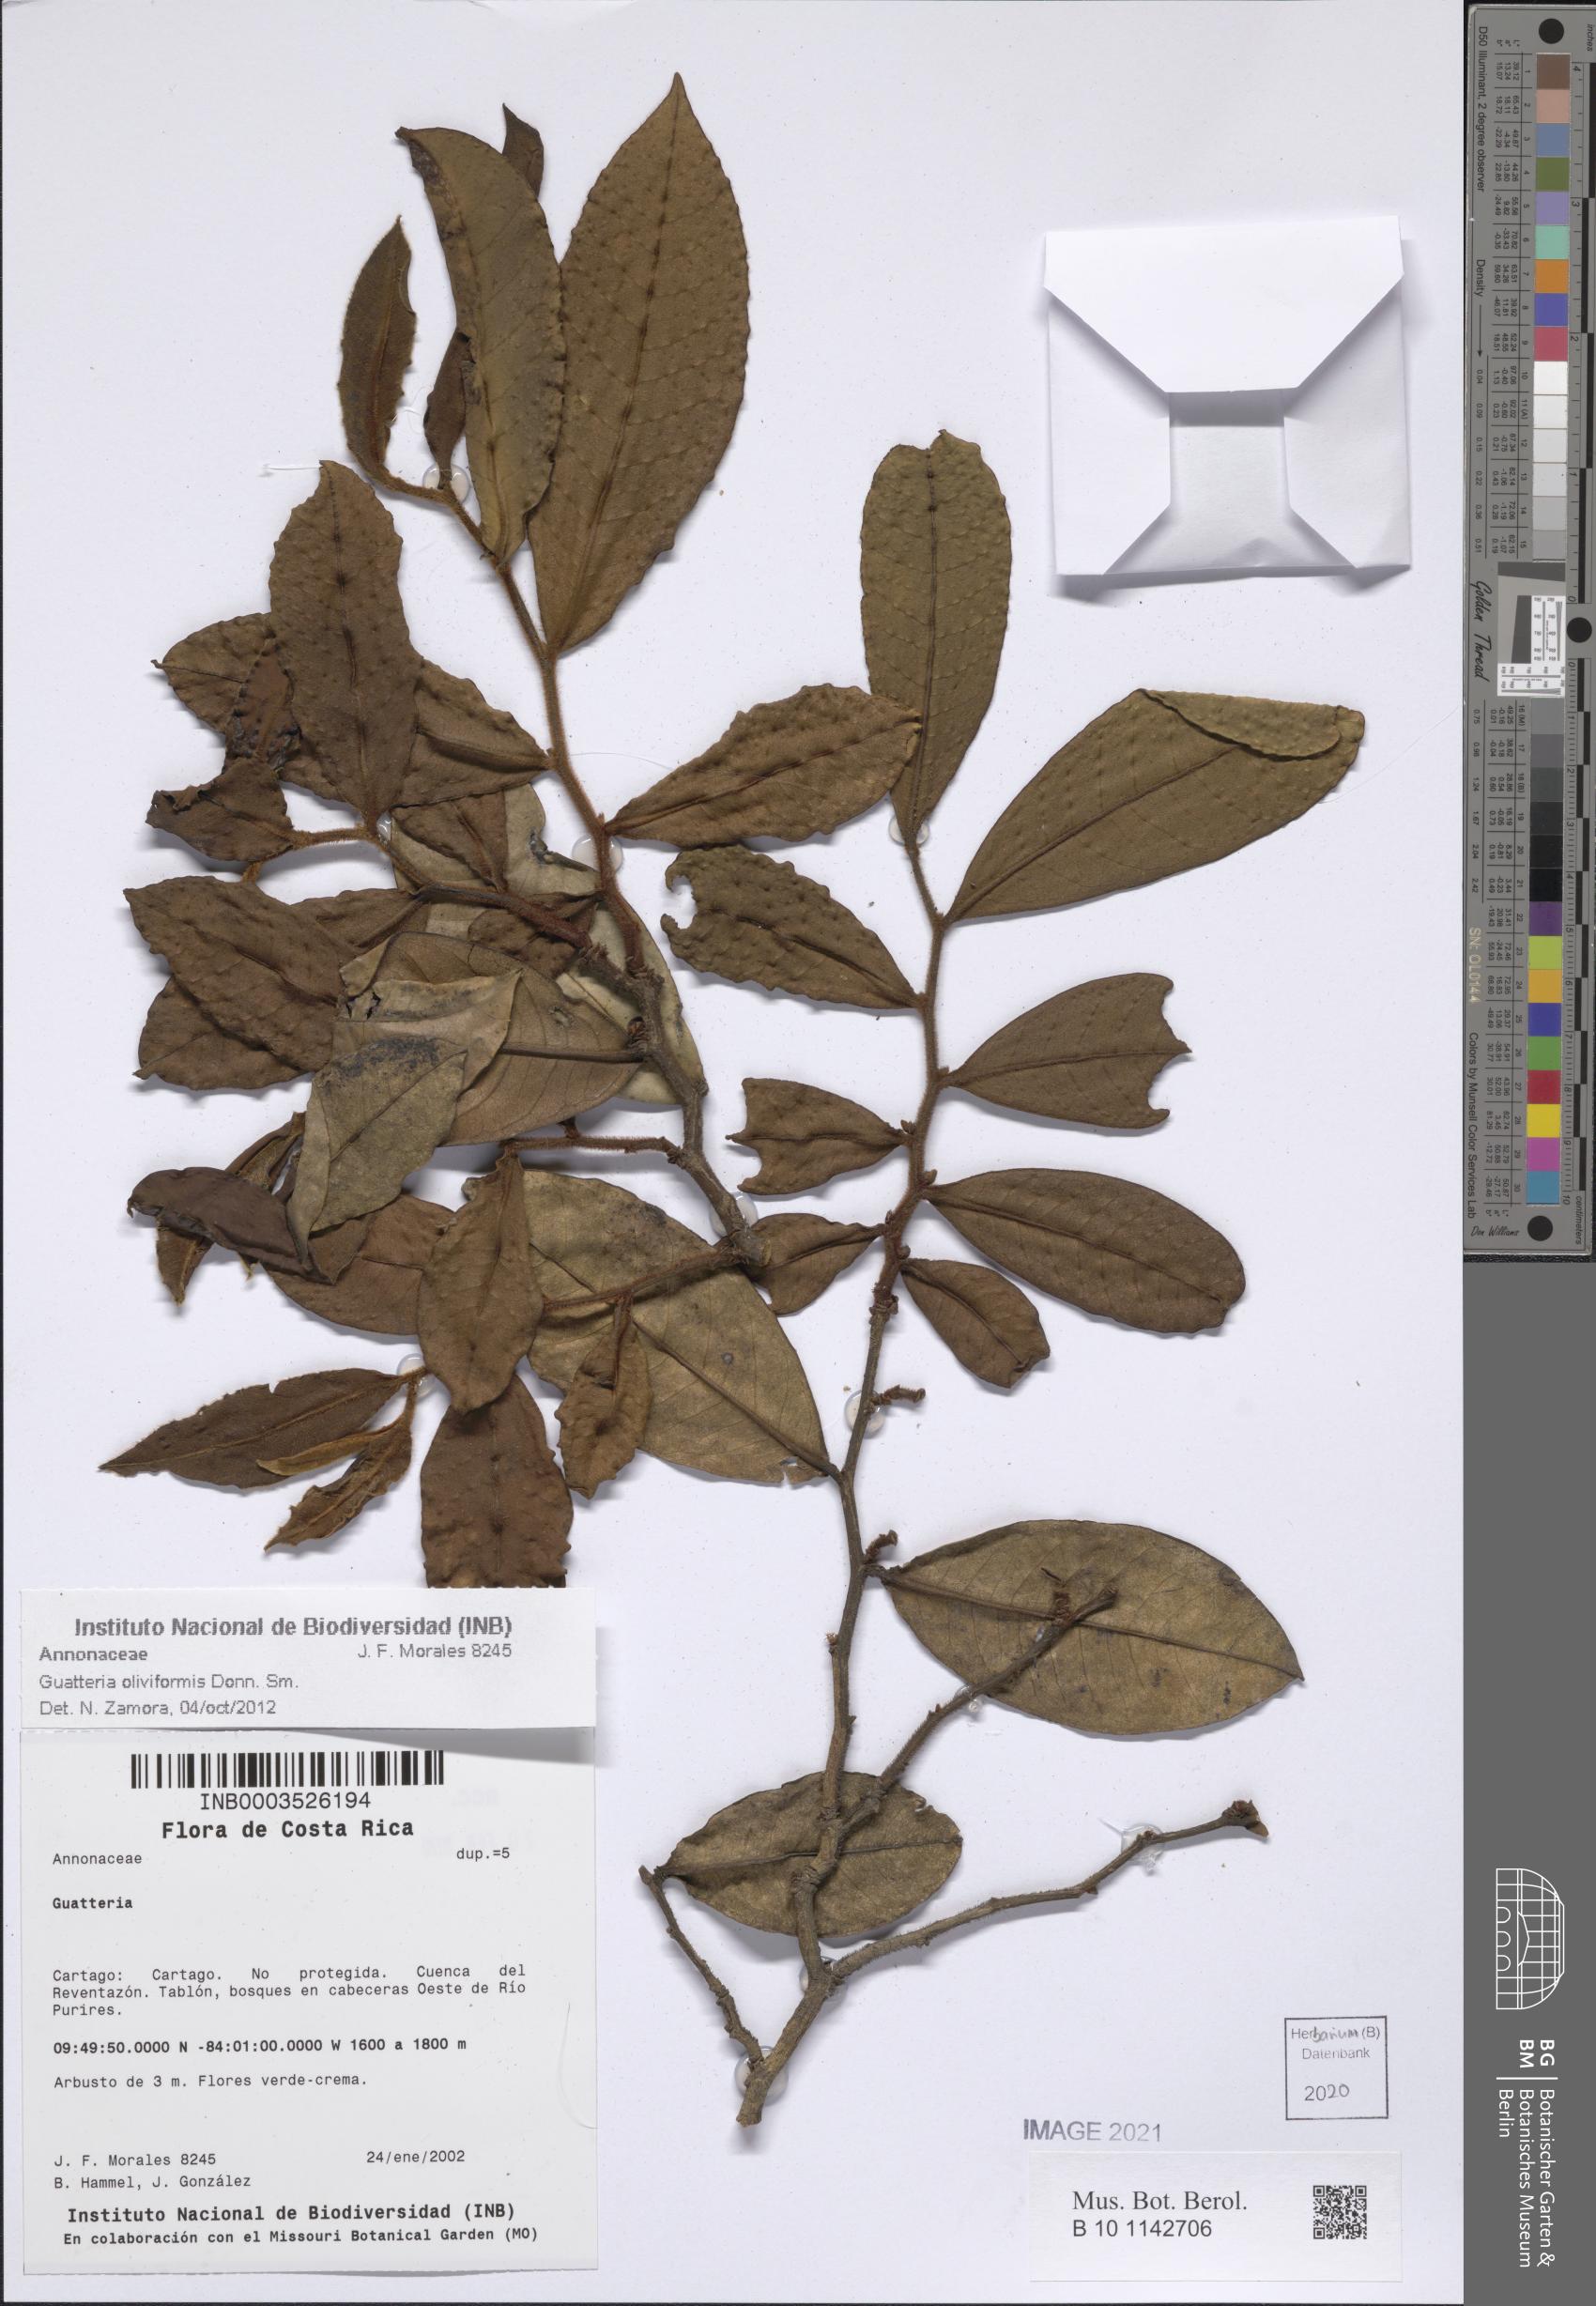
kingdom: Plantae
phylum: Tracheophyta
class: Magnoliopsida
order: Magnoliales
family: Annonaceae
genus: Guatteria
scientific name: Guatteria oliviformis
